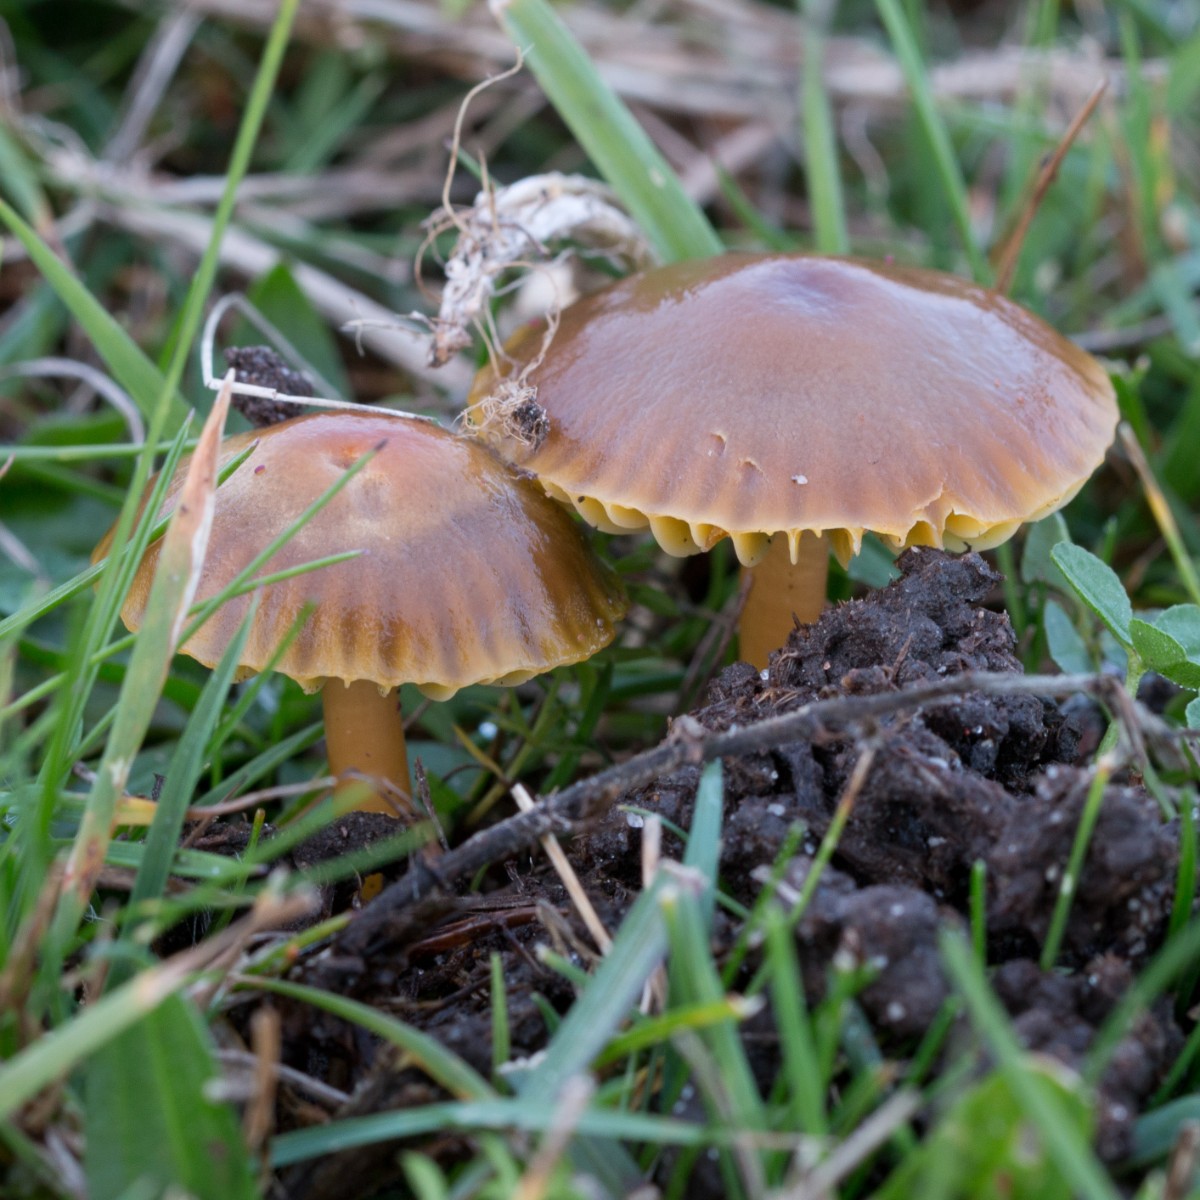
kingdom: Fungi
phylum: Basidiomycota
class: Agaricomycetes
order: Agaricales
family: Hygrophoraceae
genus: Gliophorus
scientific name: Gliophorus psittacinus
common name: papegøje-vokshat
